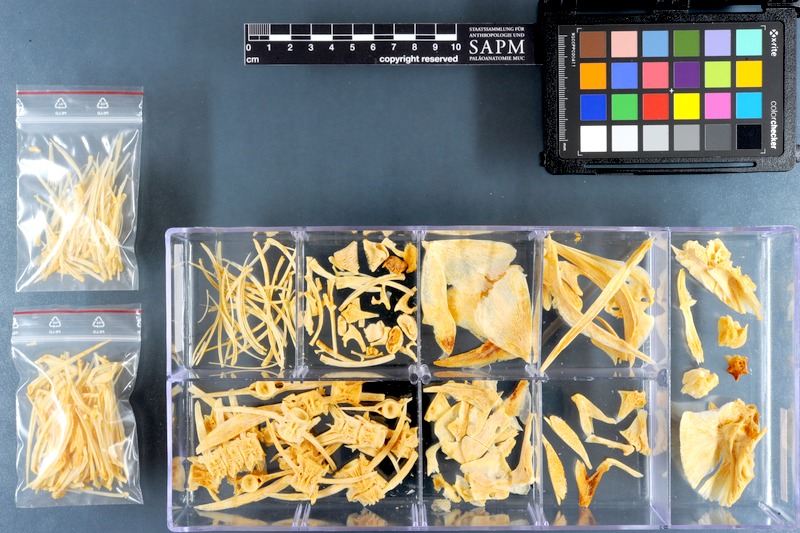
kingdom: Animalia
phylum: Chordata
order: Perciformes
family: Carangidae
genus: Parastromateus
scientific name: Parastromateus niger
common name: Black pomfret
